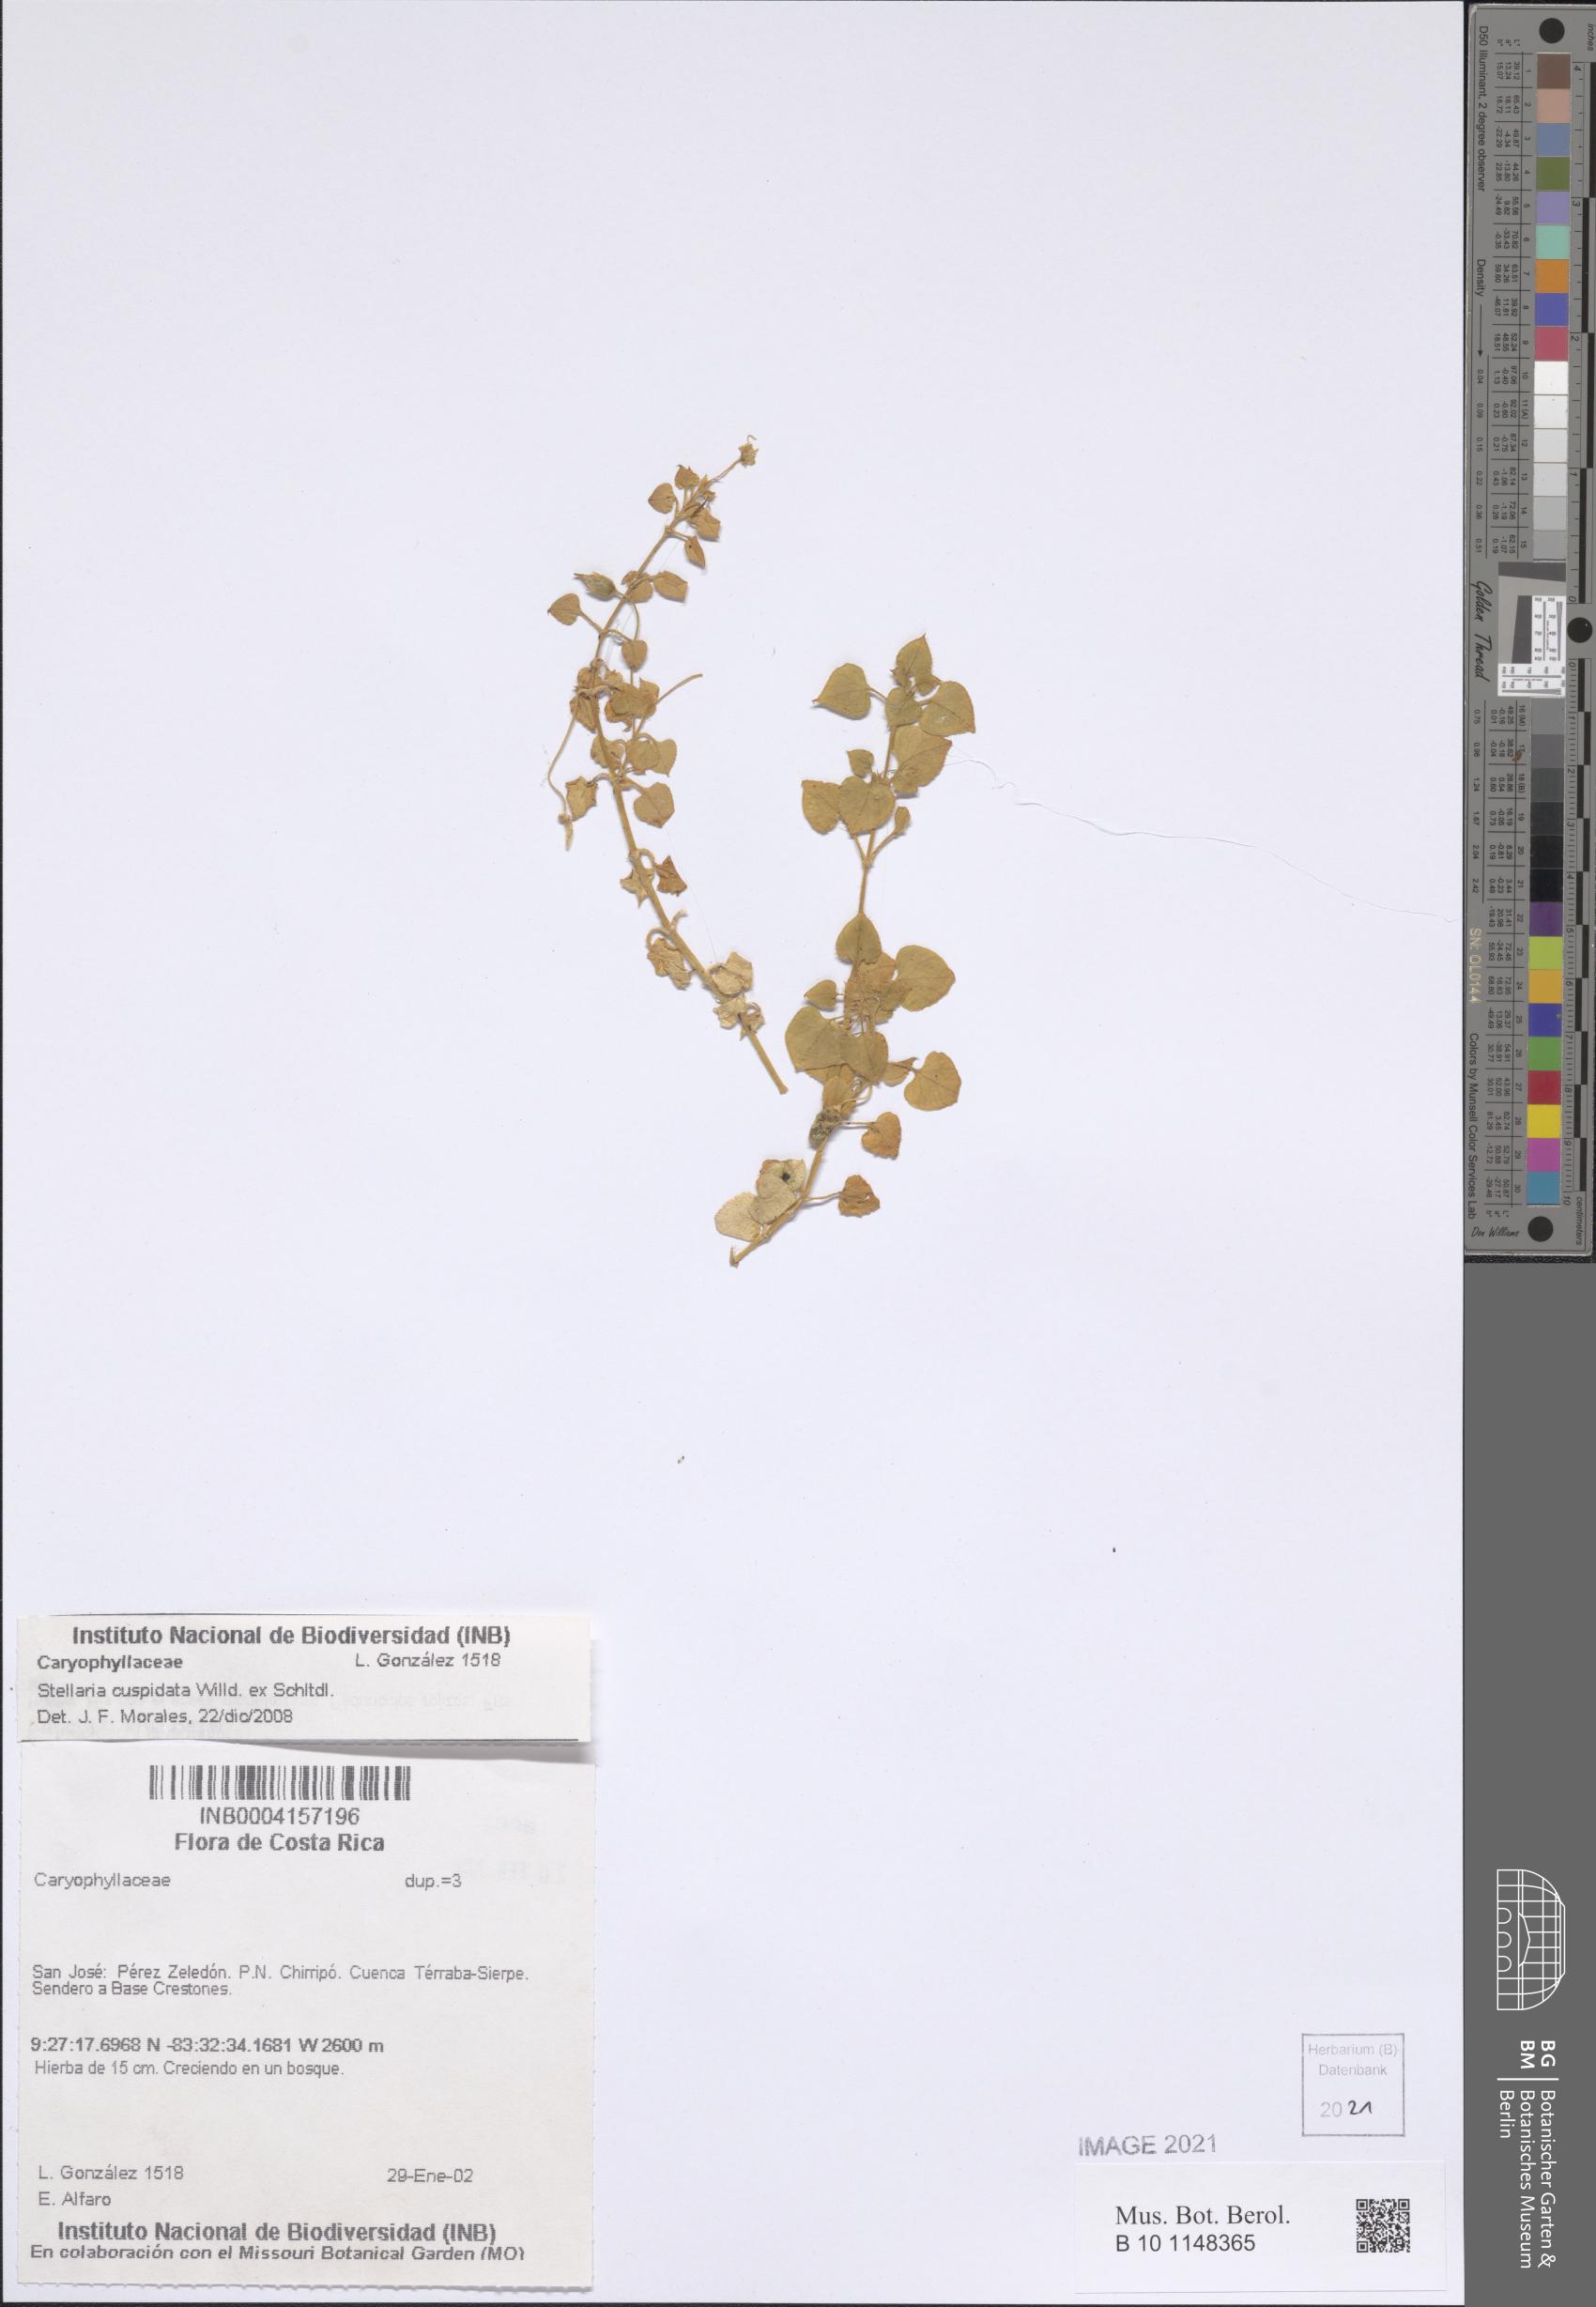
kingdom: Plantae
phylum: Tracheophyta
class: Magnoliopsida
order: Caryophyllales
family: Caryophyllaceae
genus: Stellaria
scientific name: Stellaria cuspidata
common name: Mexican chickweed
